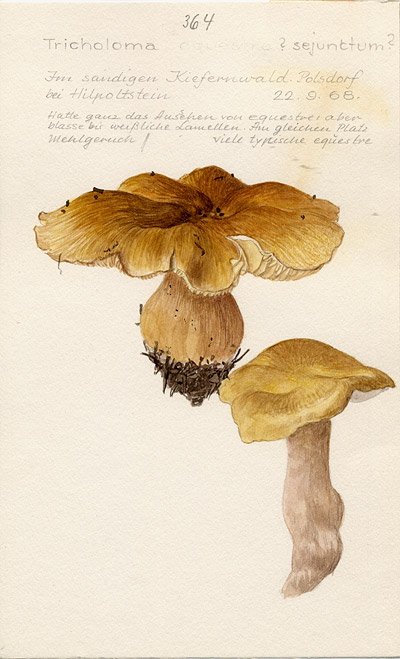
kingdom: Fungi
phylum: Basidiomycota
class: Agaricomycetes
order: Agaricales
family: Tricholomataceae
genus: Tricholoma
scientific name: Tricholoma sejunctum
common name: Deceiving knight
